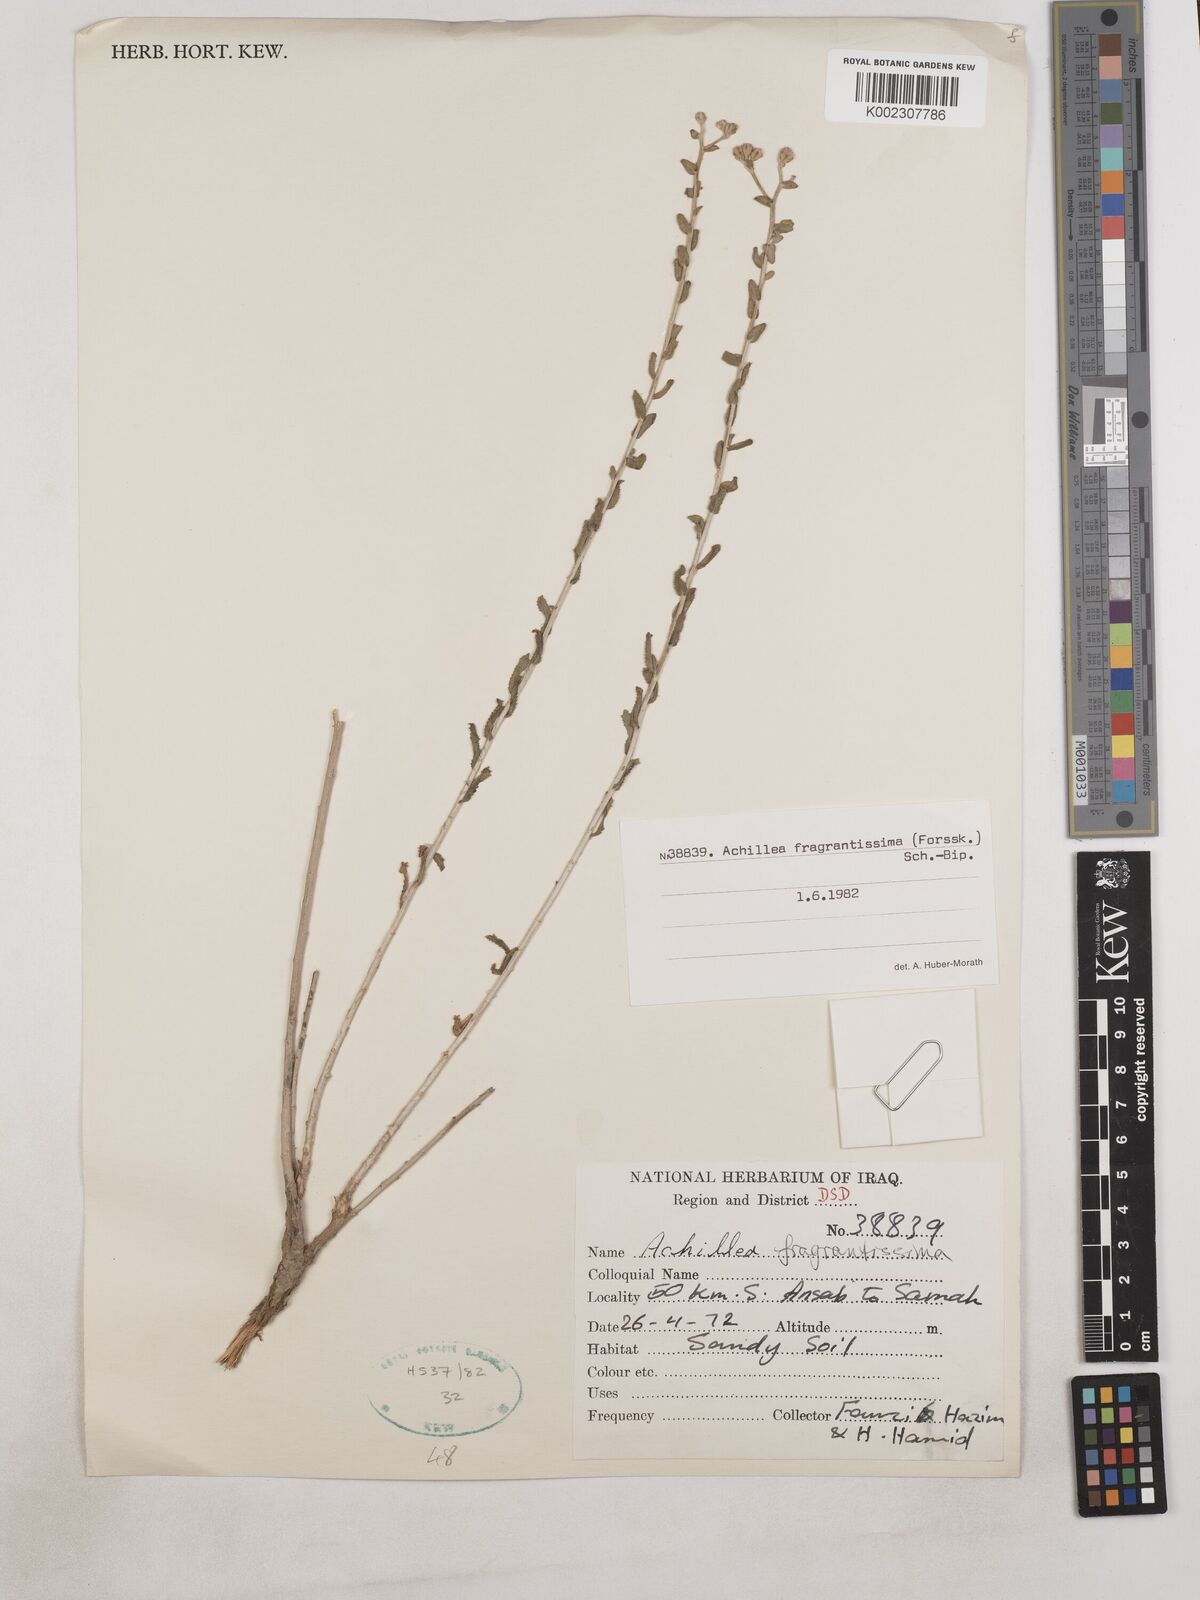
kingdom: Plantae
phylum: Tracheophyta
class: Magnoliopsida
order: Asterales
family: Asteraceae
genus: Achillea
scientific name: Achillea fragrantissima
